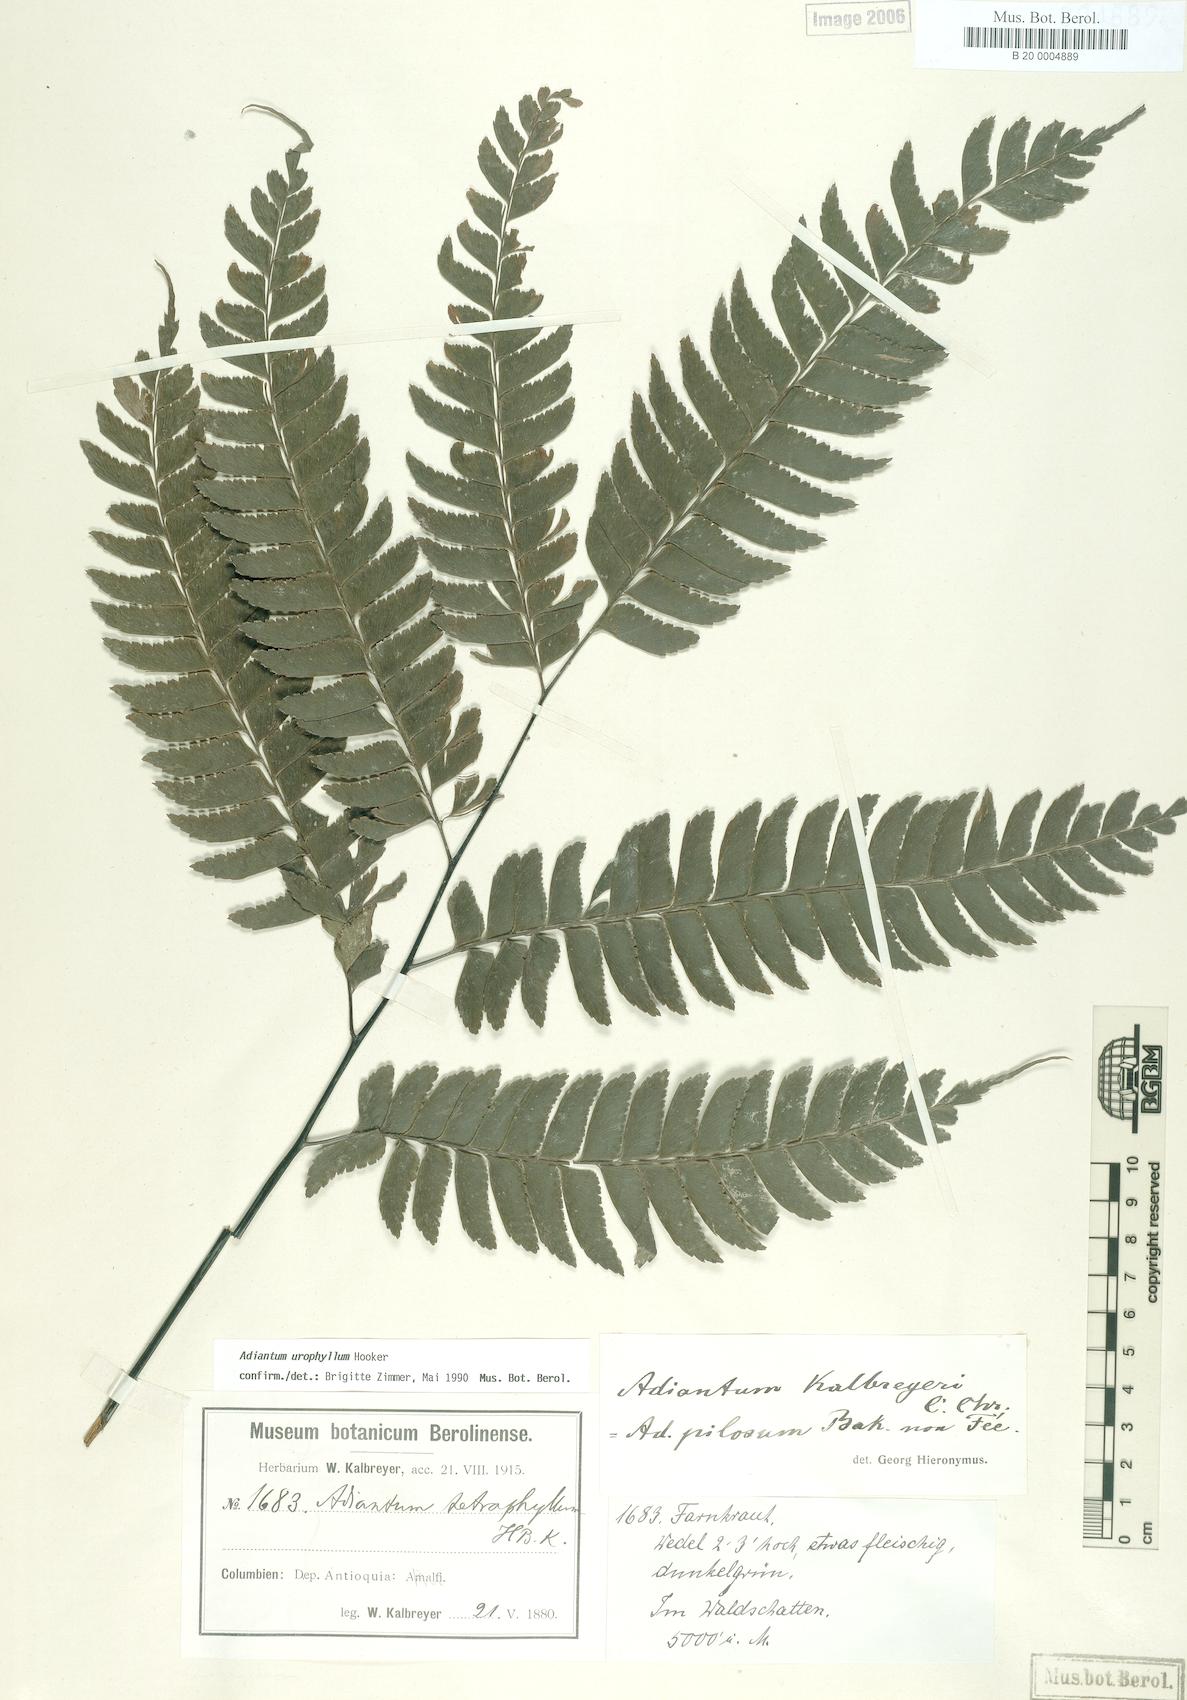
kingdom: Plantae
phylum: Tracheophyta
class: Polypodiopsida
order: Polypodiales
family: Pteridaceae
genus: Adiantum
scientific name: Adiantum urophyllum
